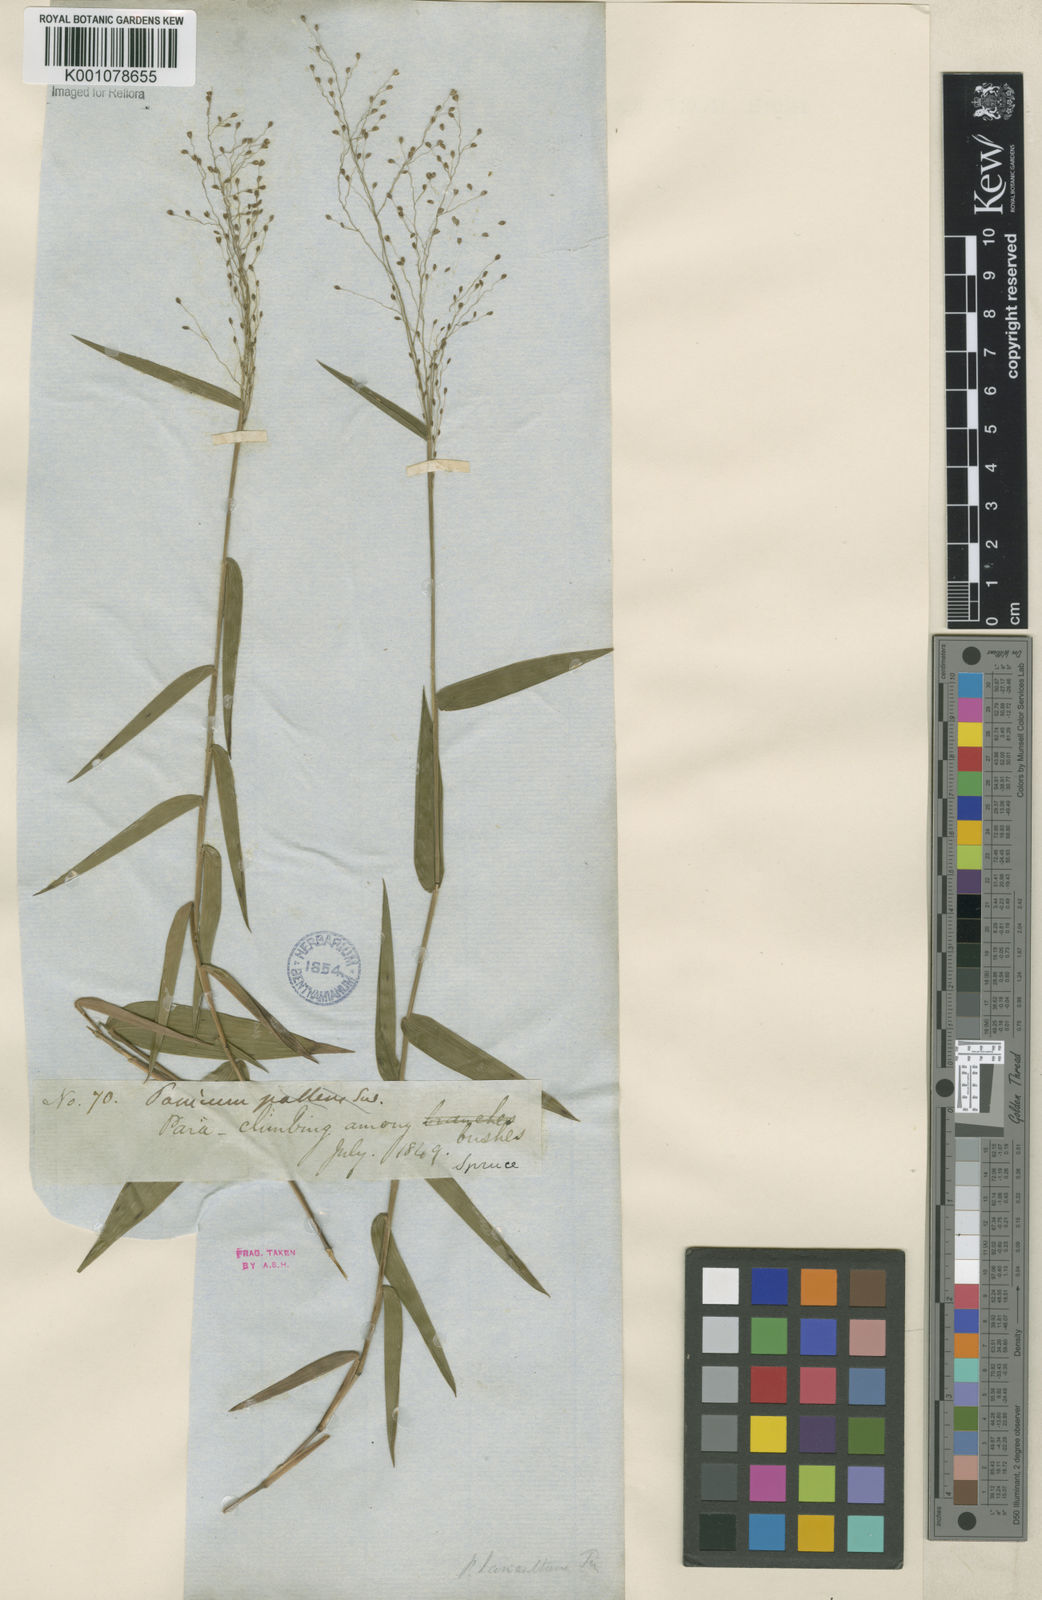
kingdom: Plantae
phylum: Tracheophyta
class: Liliopsida
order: Poales
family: Poaceae
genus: Panicum
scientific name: Panicum millegrana
